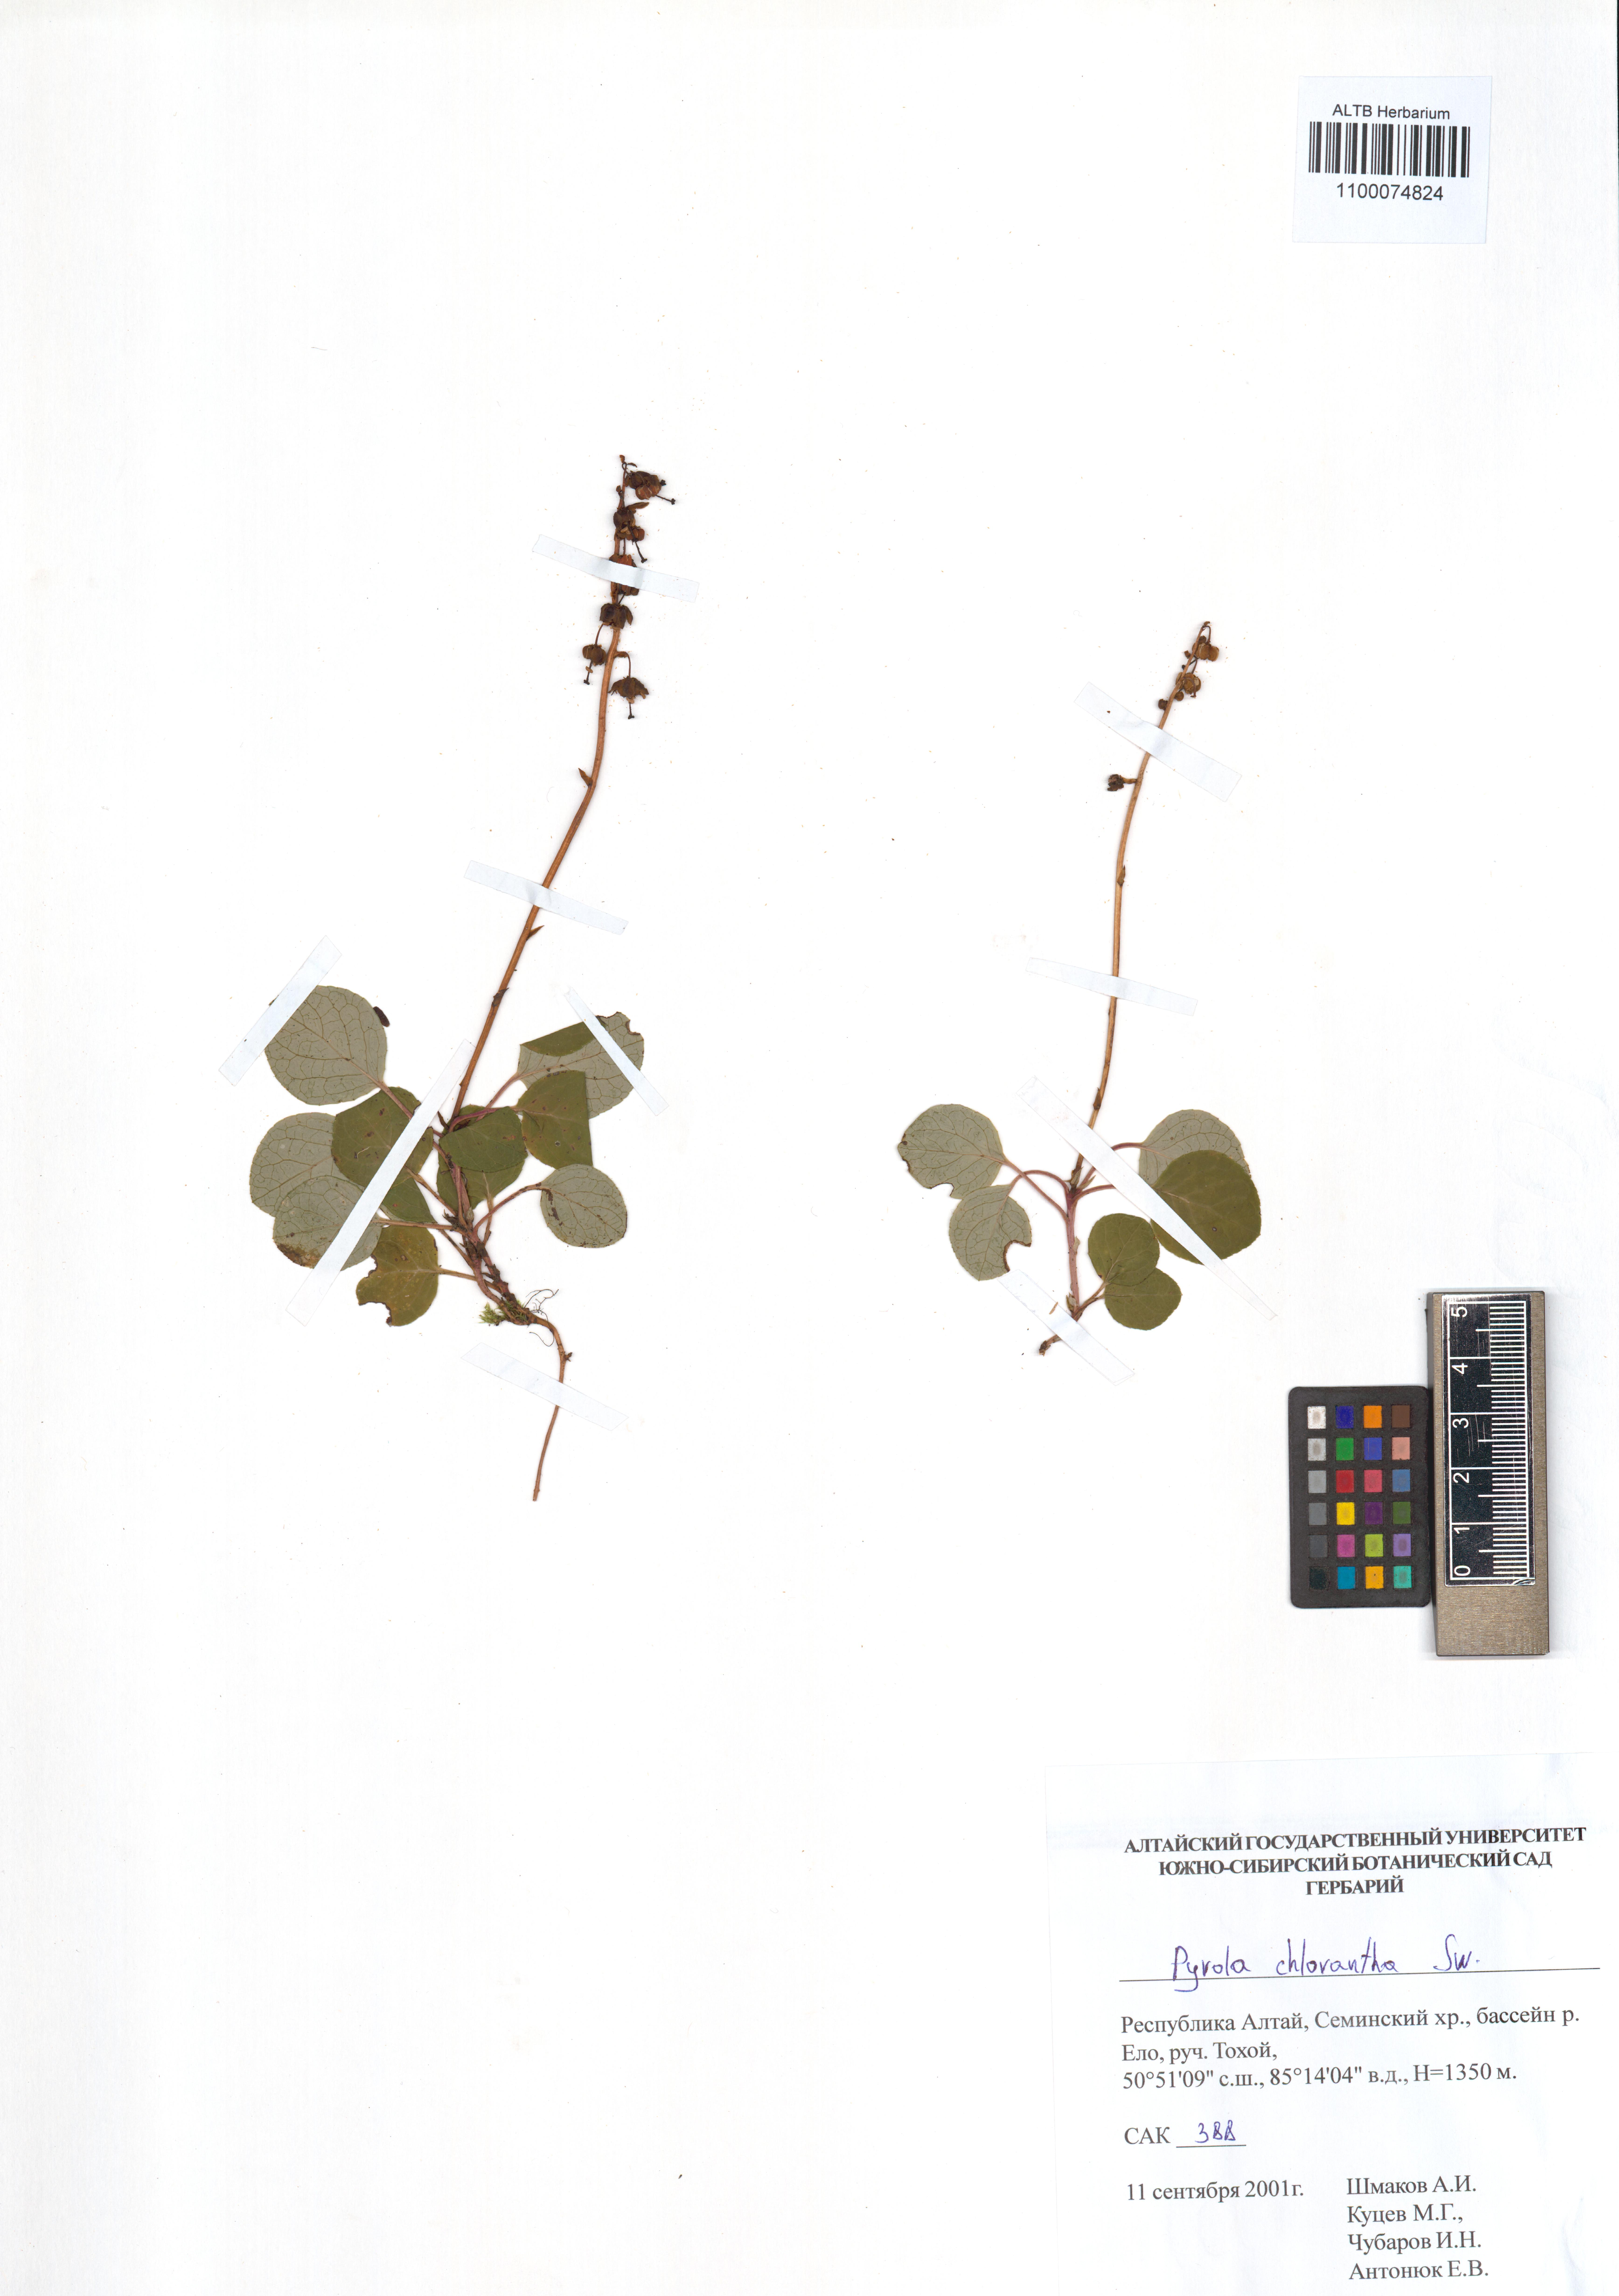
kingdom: Plantae
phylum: Tracheophyta
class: Magnoliopsida
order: Ericales
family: Ericaceae
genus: Pyrola
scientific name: Pyrola chlorantha
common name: Green wintergreen
